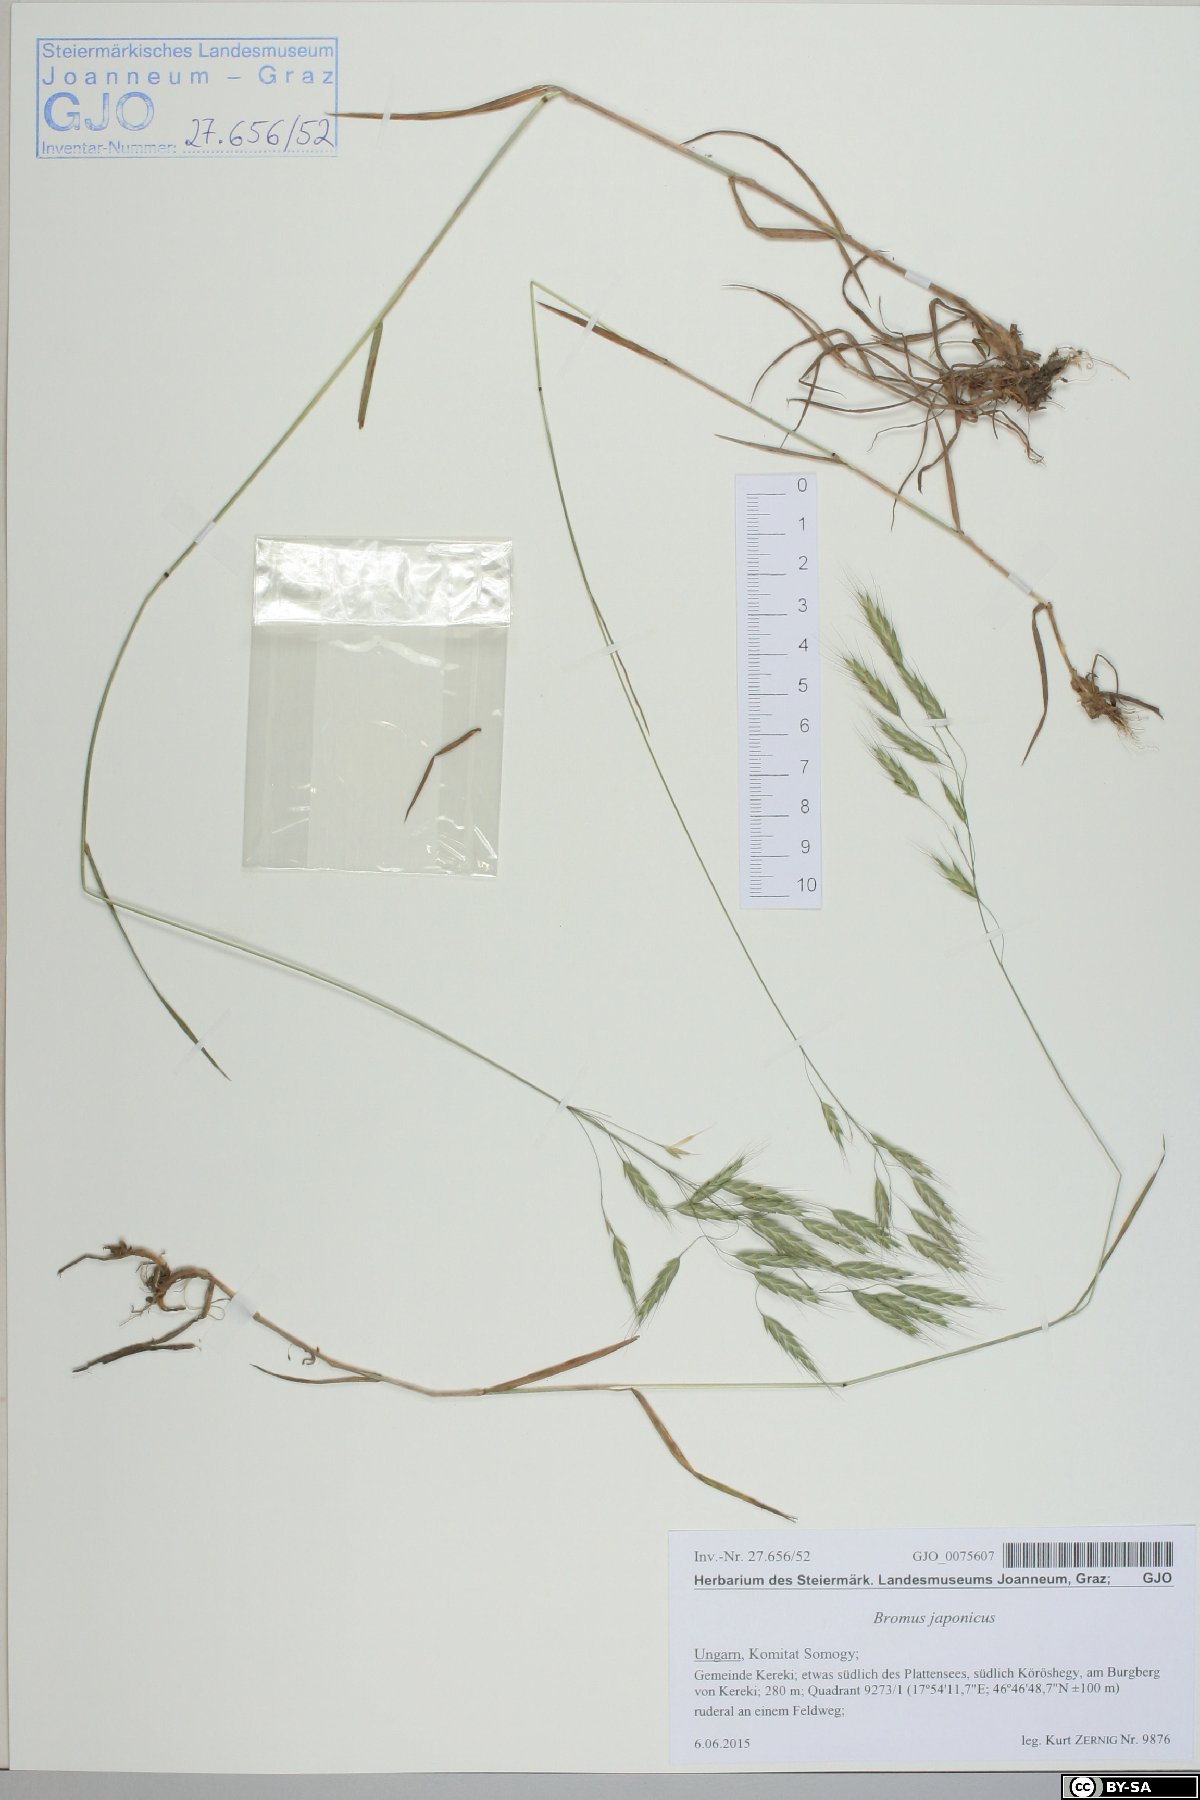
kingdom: Plantae
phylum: Tracheophyta
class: Liliopsida
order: Poales
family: Poaceae
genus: Bromus
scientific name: Bromus japonicus
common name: Japanese brome
